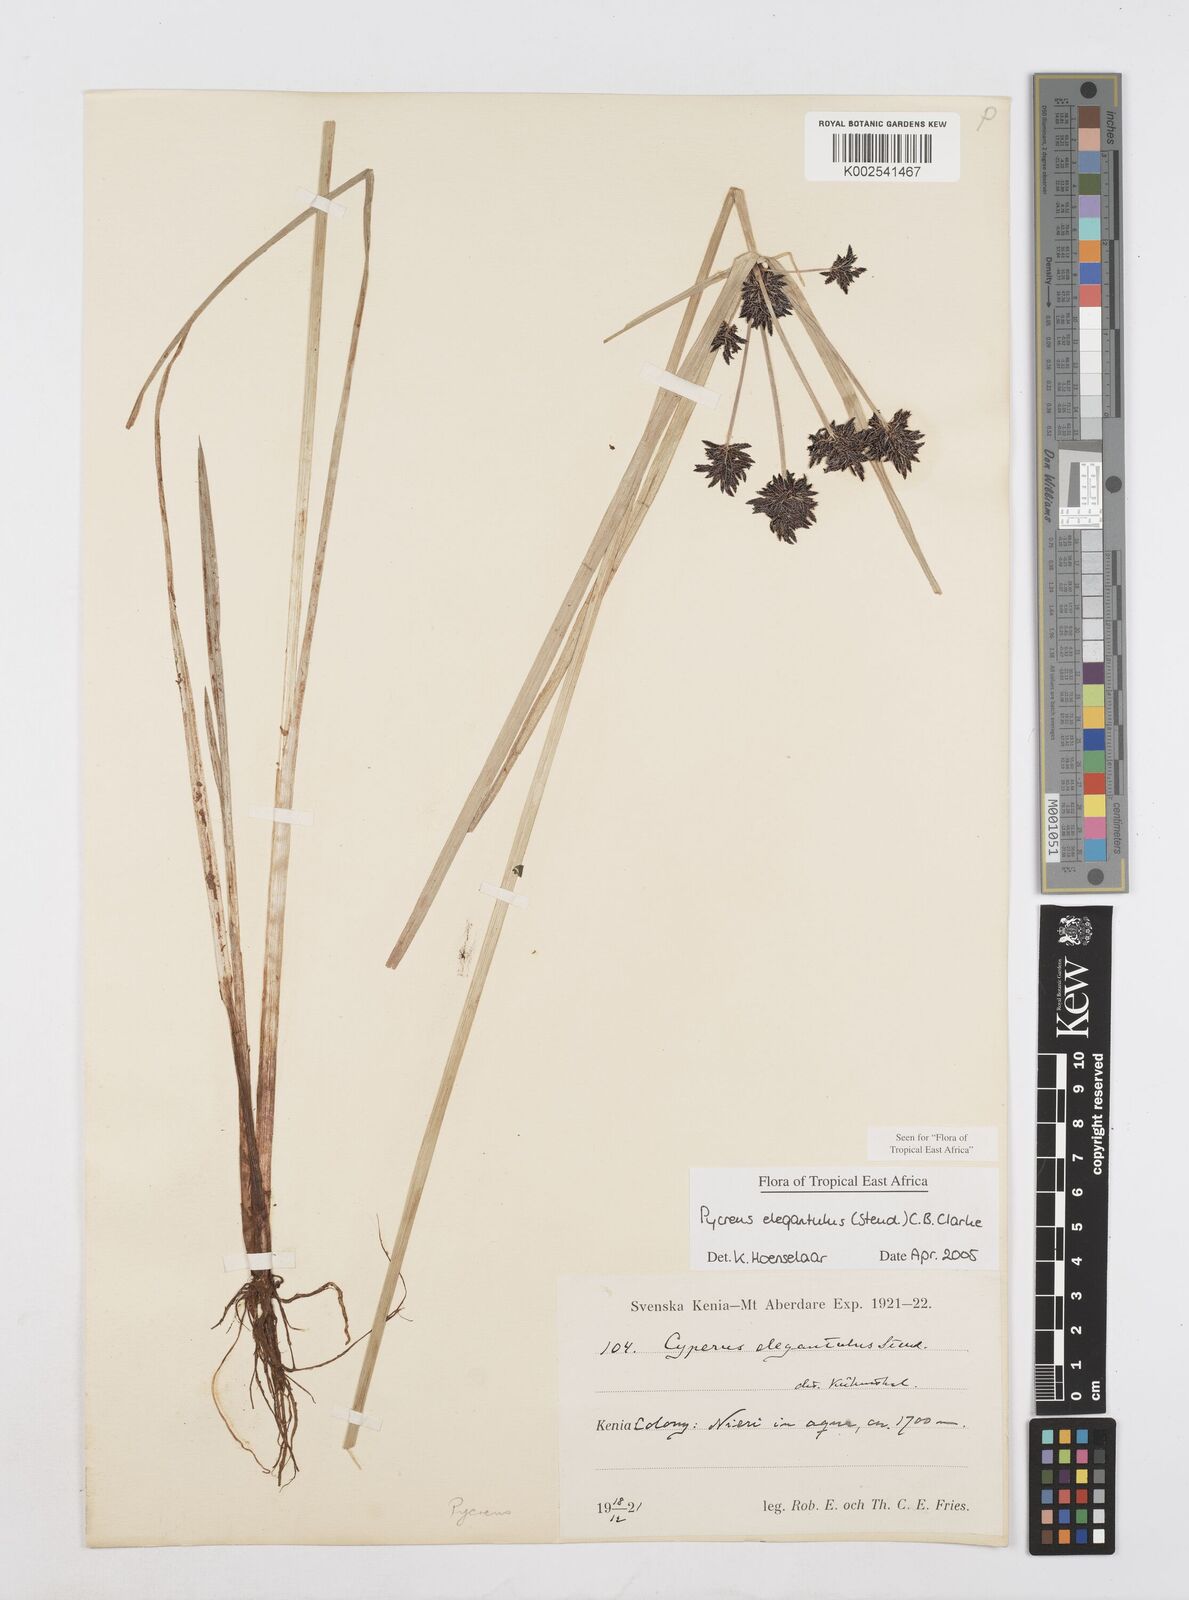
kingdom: Plantae
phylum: Tracheophyta
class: Liliopsida
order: Poales
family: Cyperaceae
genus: Cyperus
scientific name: Cyperus elegantulus
